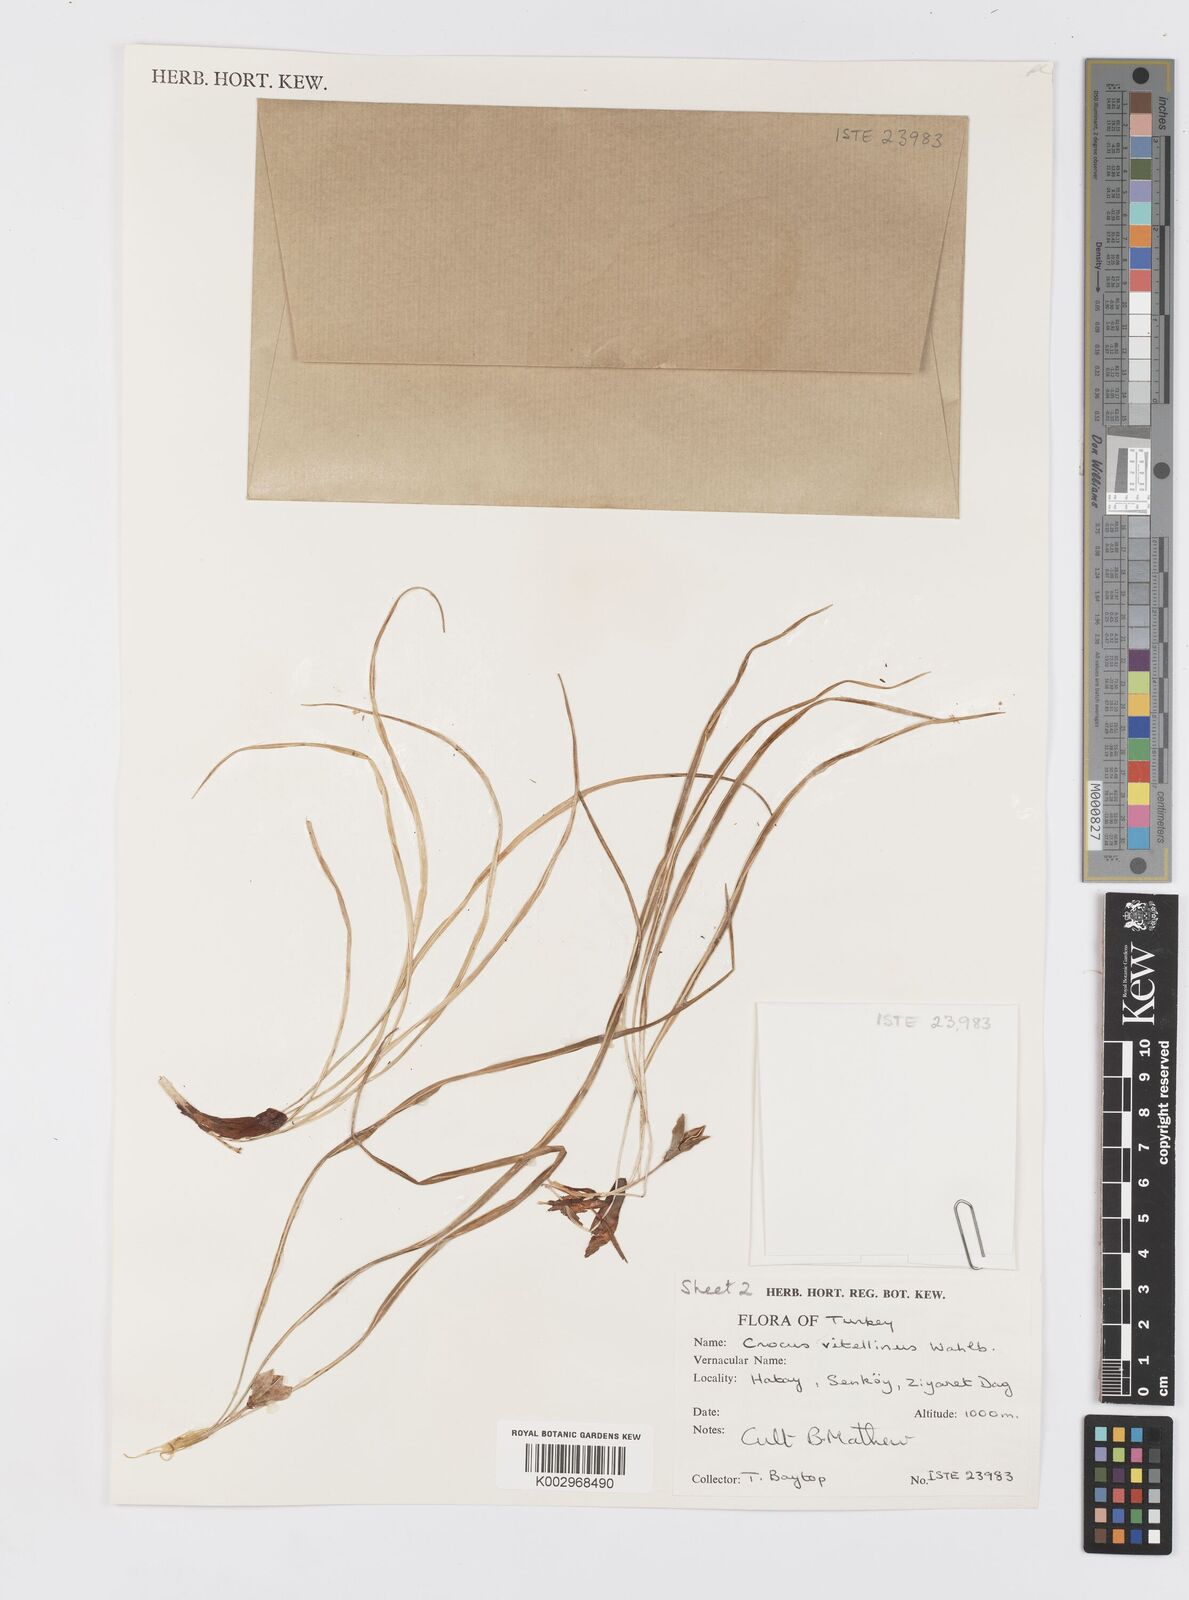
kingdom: Plantae
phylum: Tracheophyta
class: Liliopsida
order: Asparagales
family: Iridaceae
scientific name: Iridaceae
